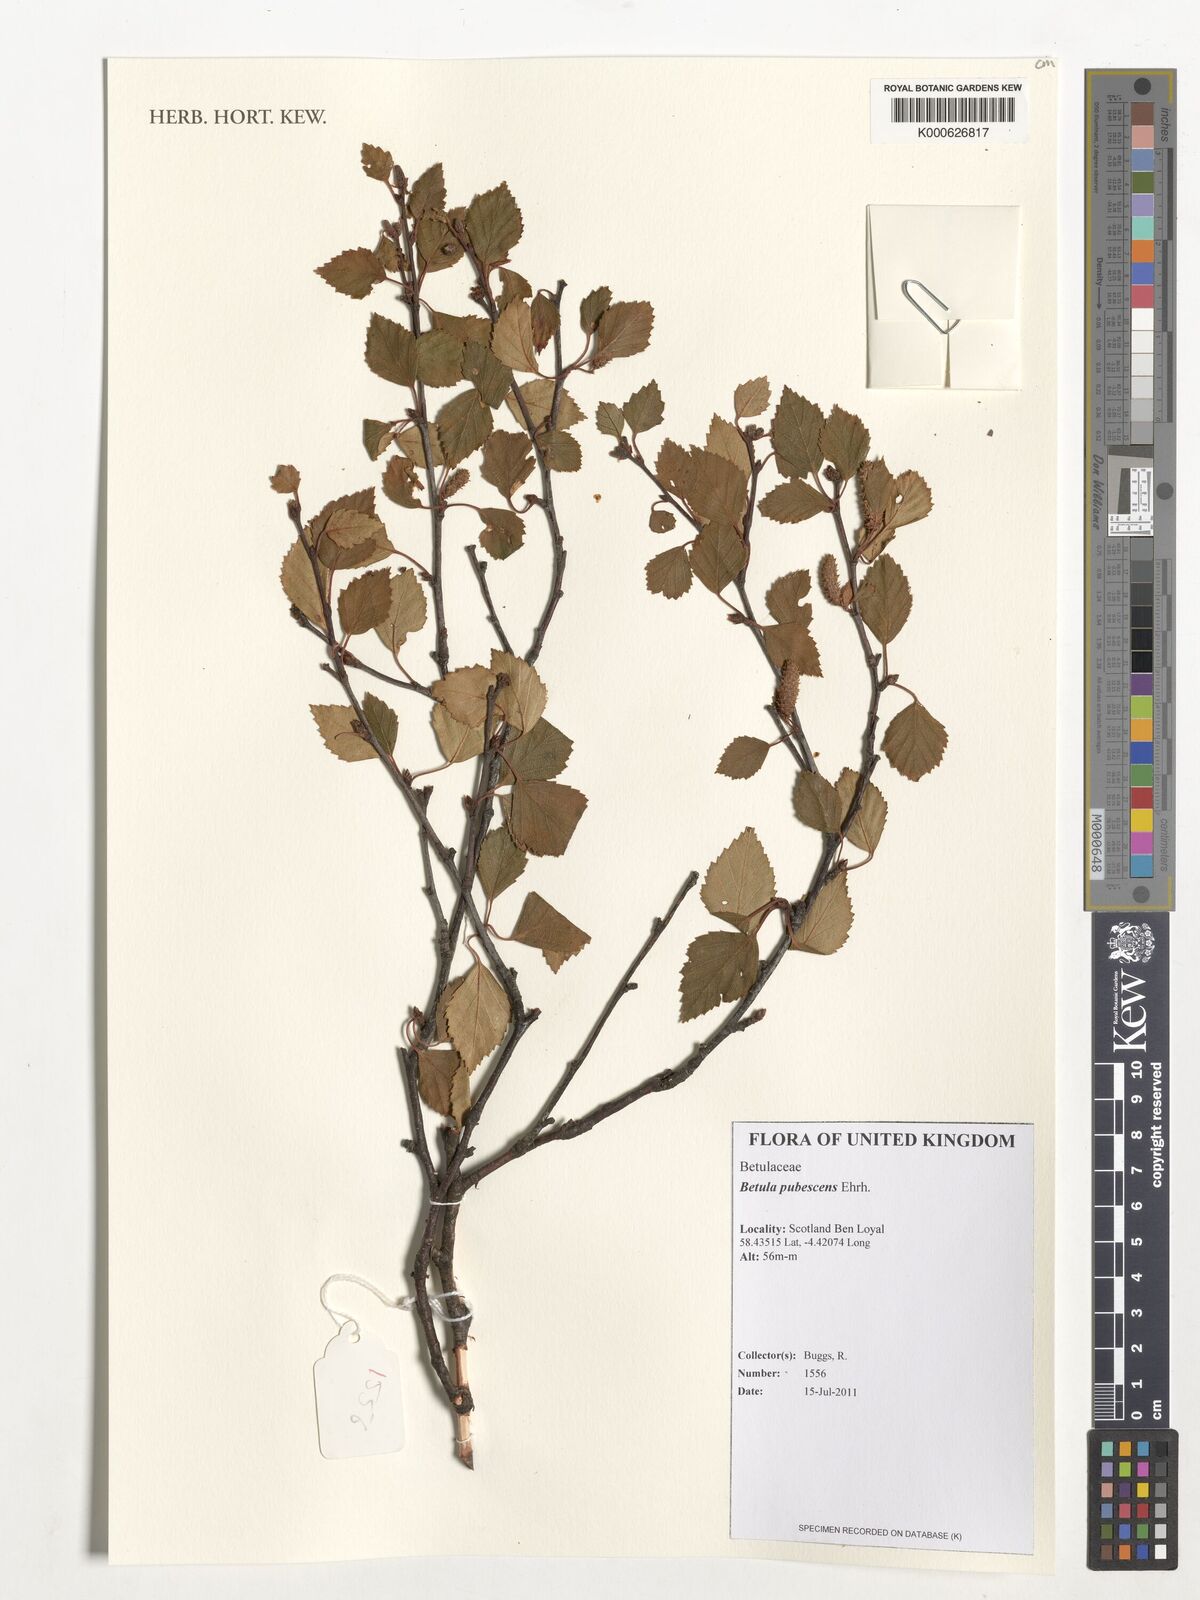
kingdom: Plantae
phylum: Tracheophyta
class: Magnoliopsida
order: Fagales
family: Betulaceae
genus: Betula
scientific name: Betula pubescens
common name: Downy birch
